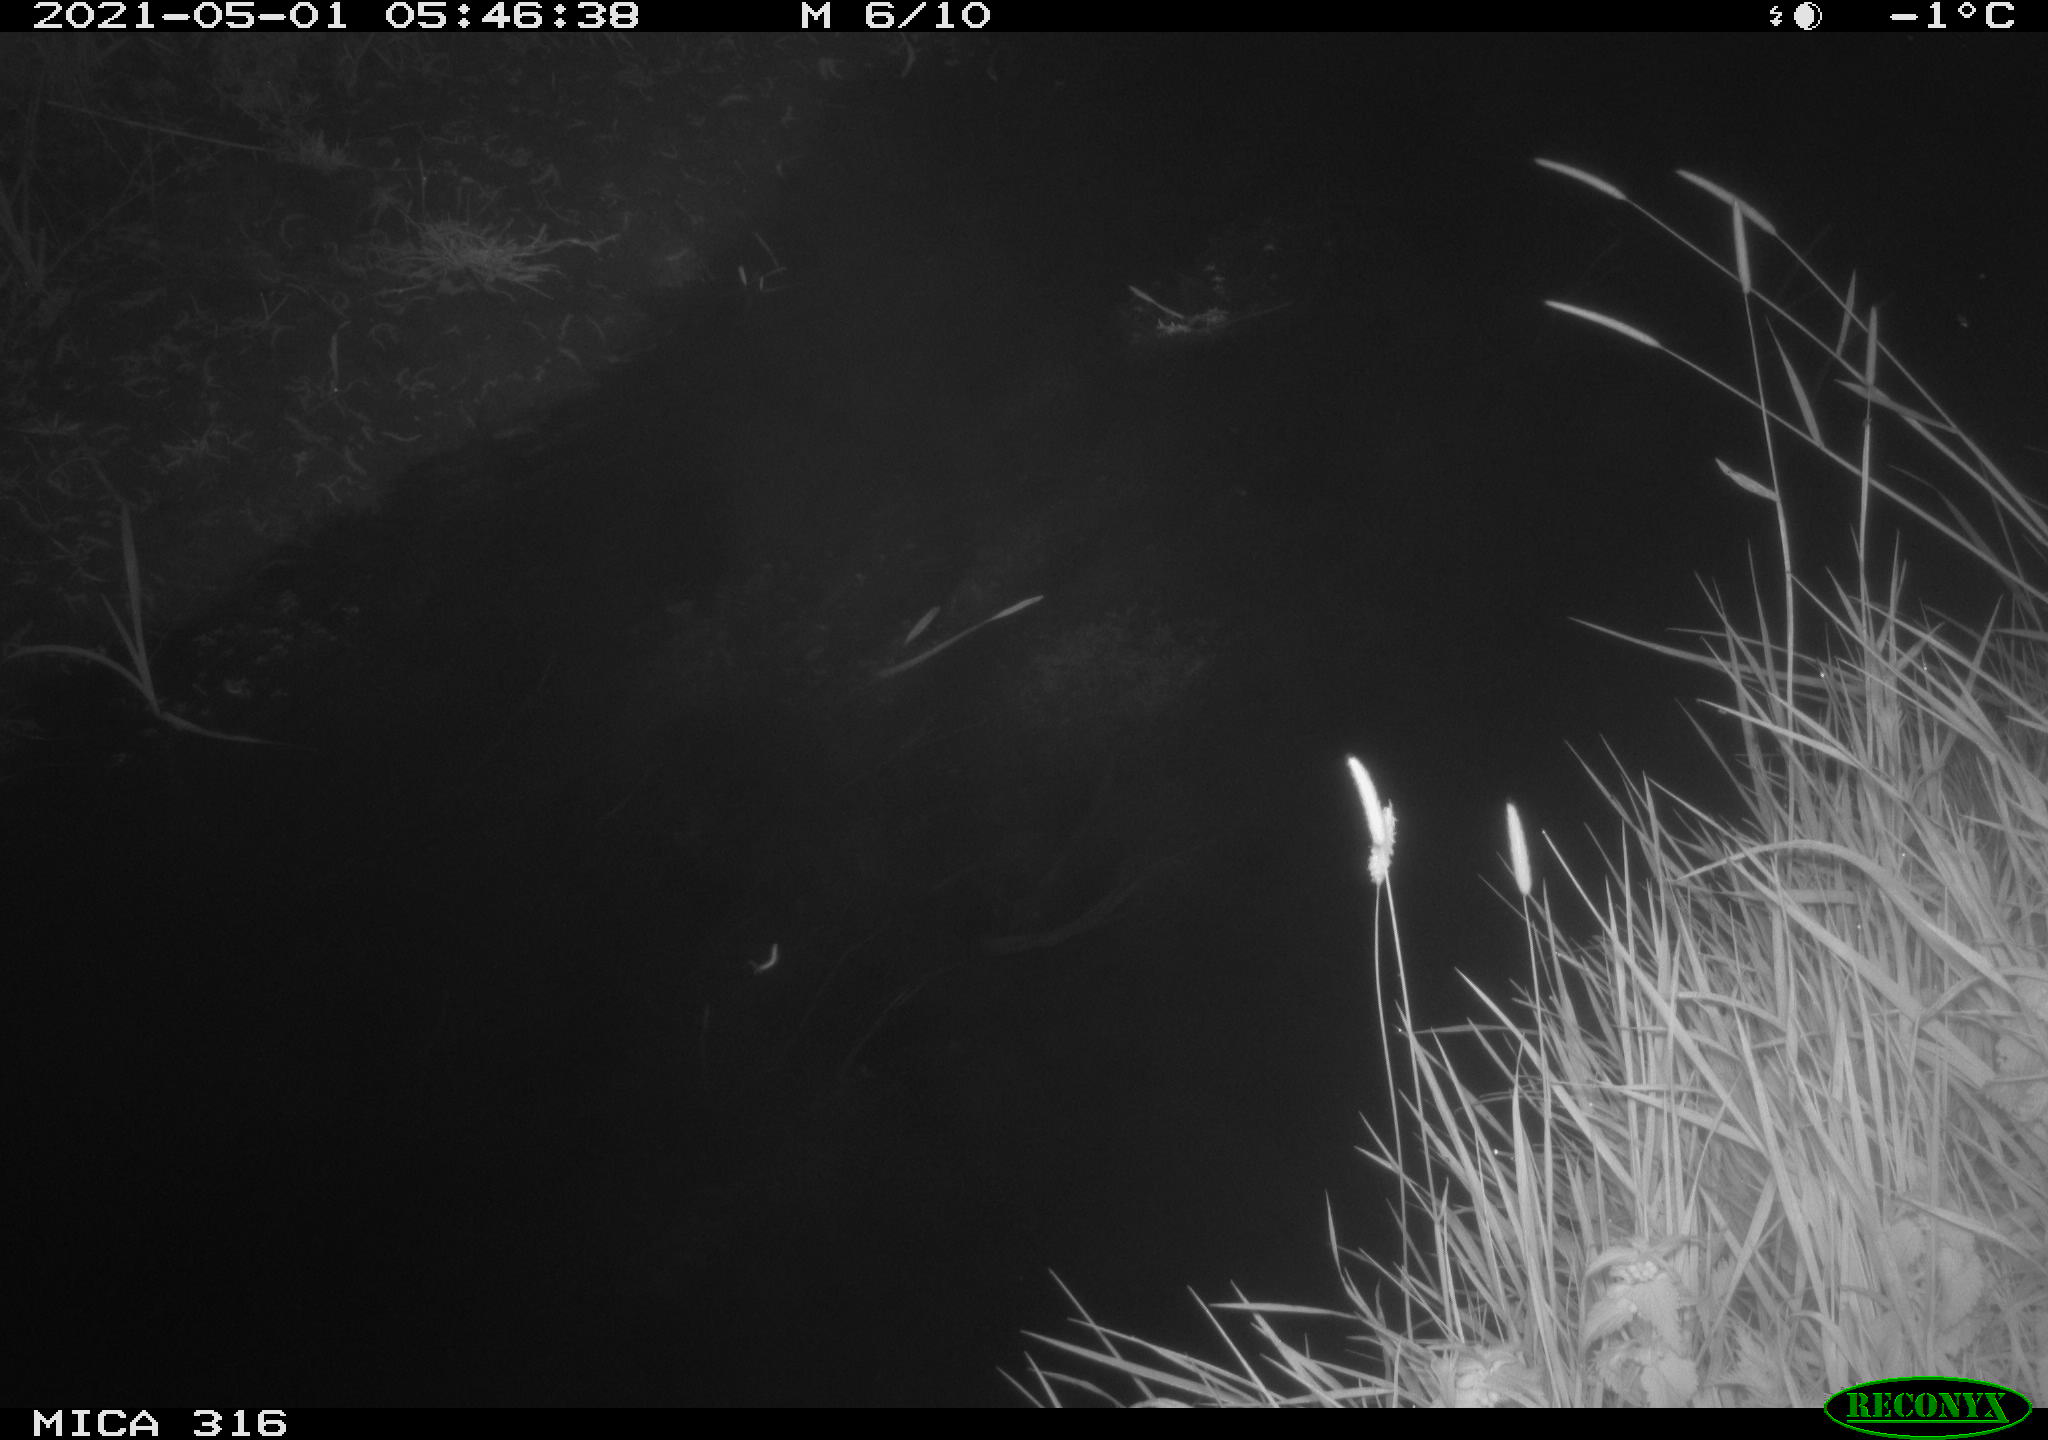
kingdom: Animalia
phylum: Chordata
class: Aves
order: Anseriformes
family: Anatidae
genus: Anas
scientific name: Anas platyrhynchos
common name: Mallard
